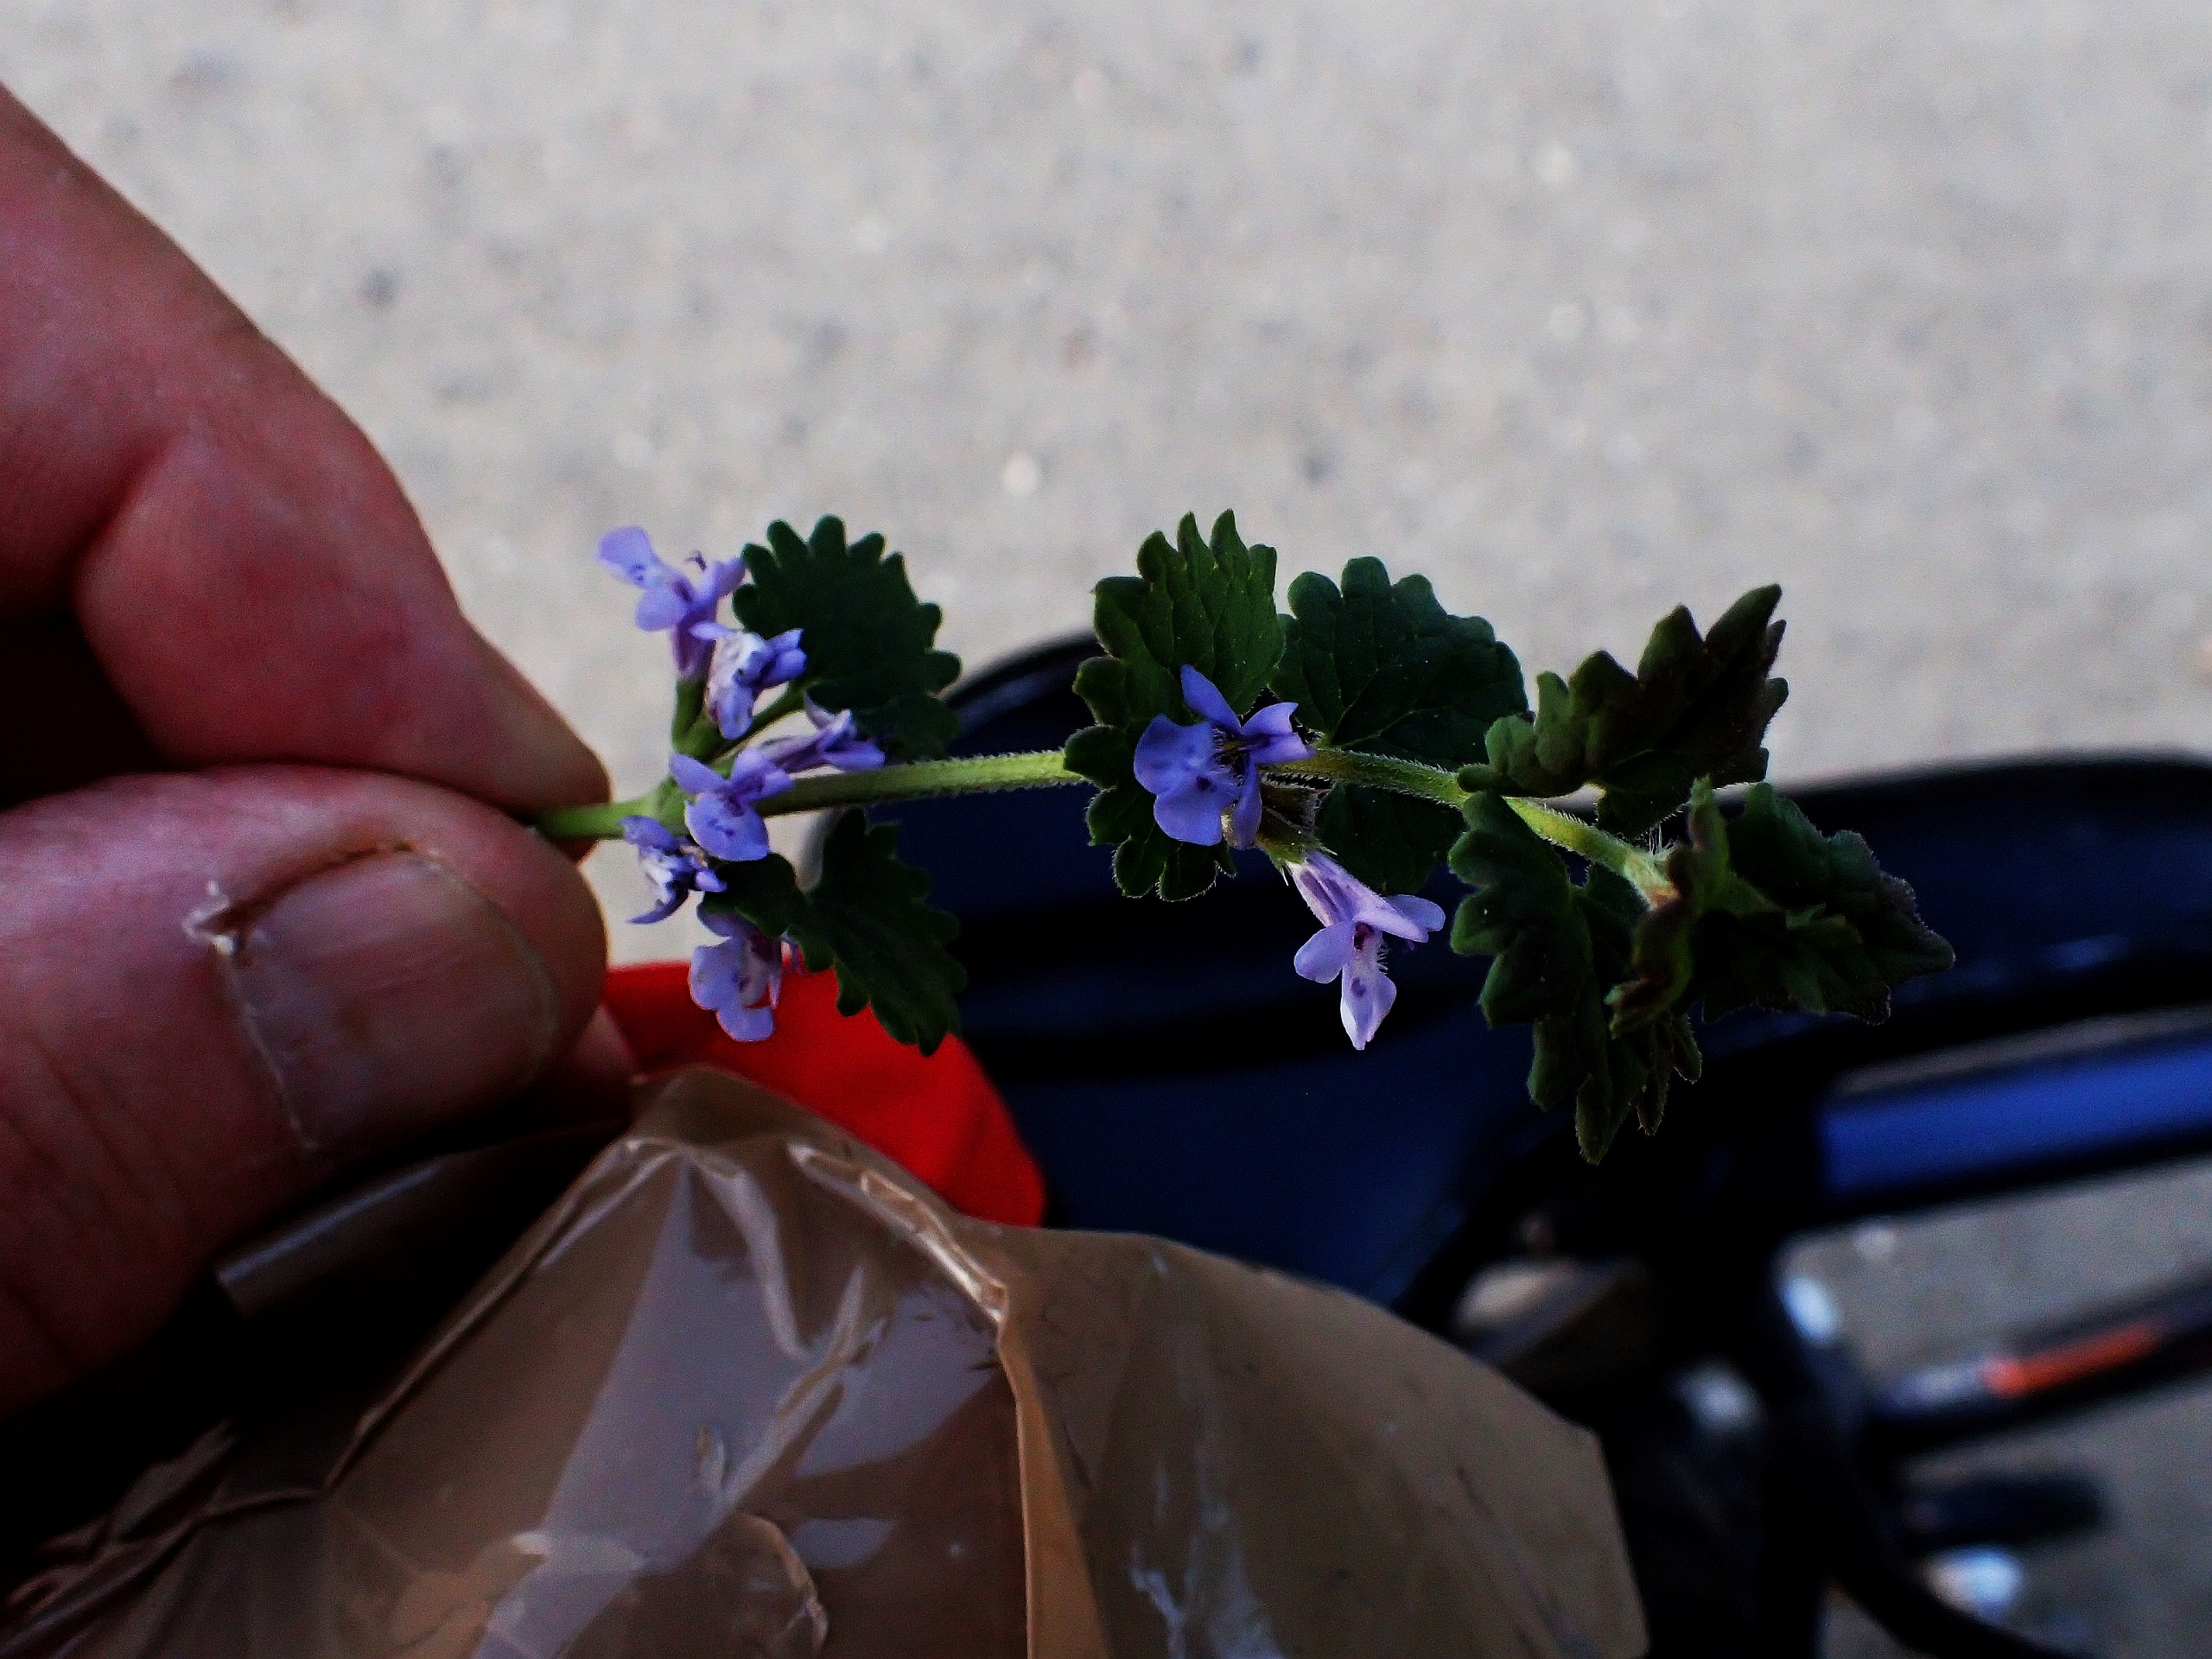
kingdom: Plantae
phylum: Tracheophyta
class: Magnoliopsida
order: Lamiales
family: Lamiaceae
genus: Glechoma
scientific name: Glechoma hederacea
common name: Korsknap
